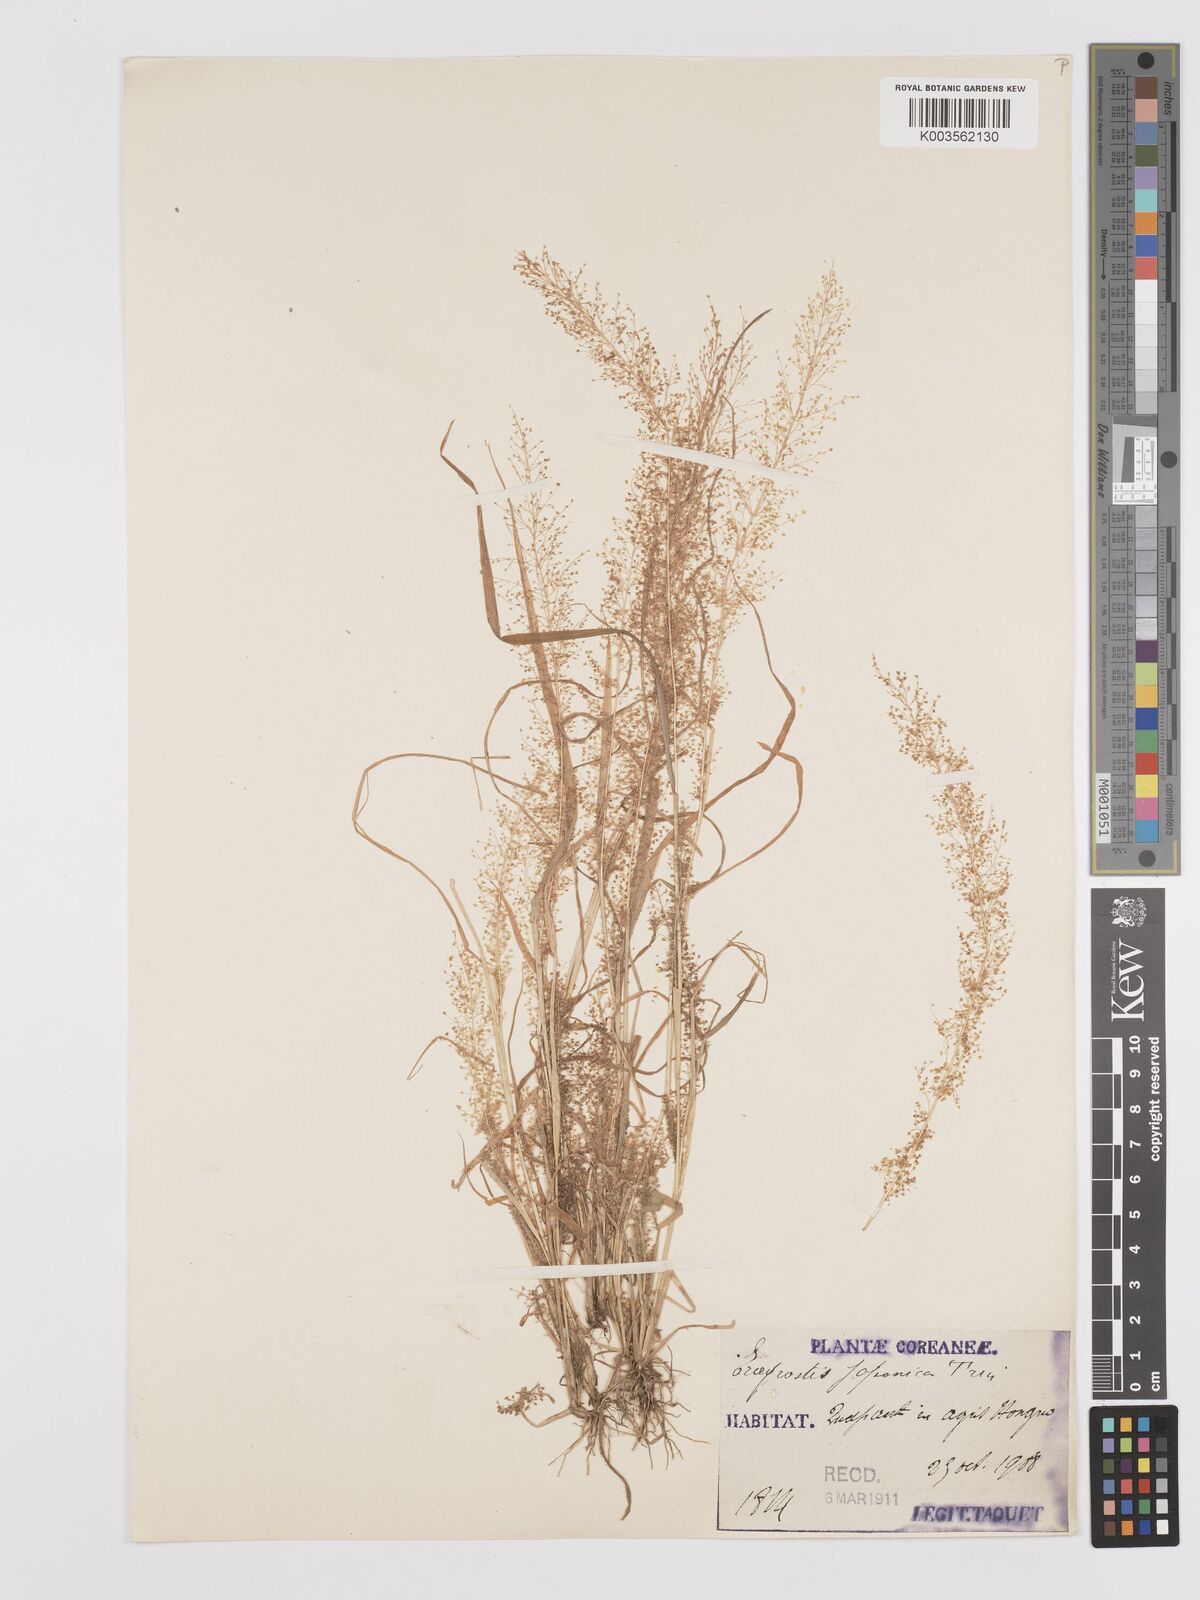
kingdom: Plantae
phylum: Tracheophyta
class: Liliopsida
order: Poales
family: Poaceae
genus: Eragrostis
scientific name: Eragrostis japonica
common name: Pond lovegrass
